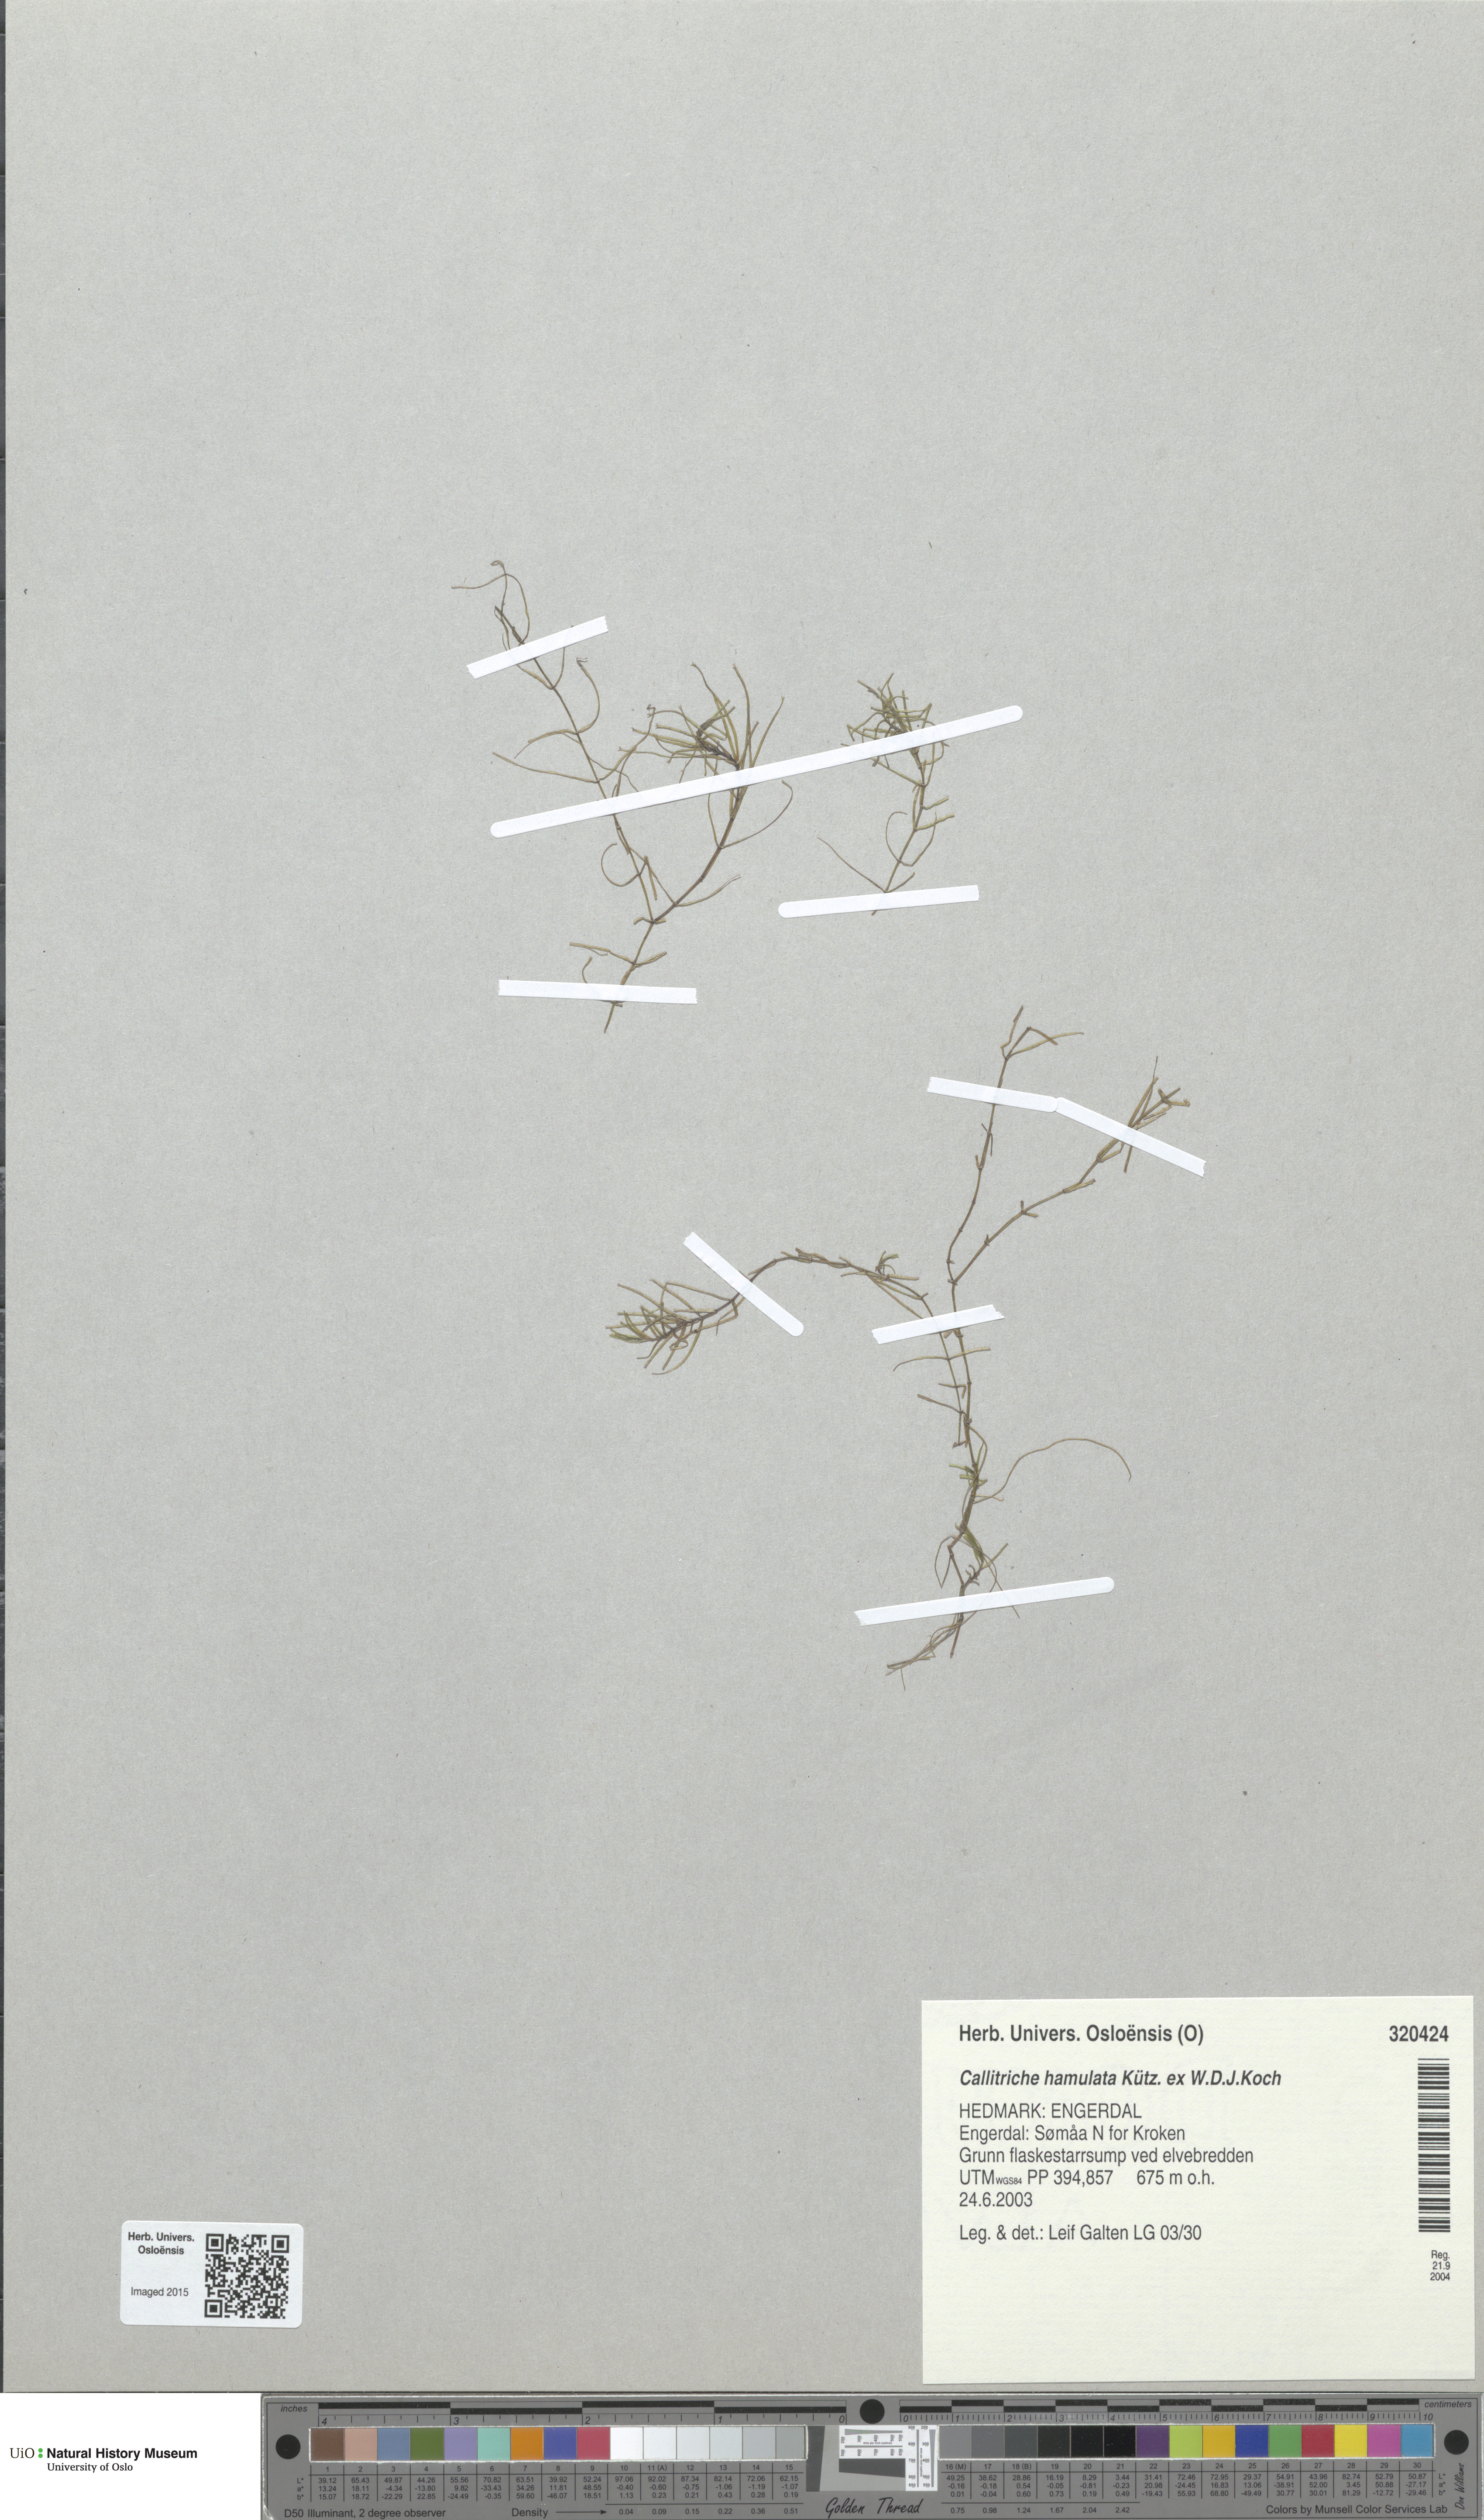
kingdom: Plantae
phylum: Tracheophyta
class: Magnoliopsida
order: Lamiales
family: Plantaginaceae
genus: Callitriche
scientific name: Callitriche hamulata
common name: Intermediate water-starwort
